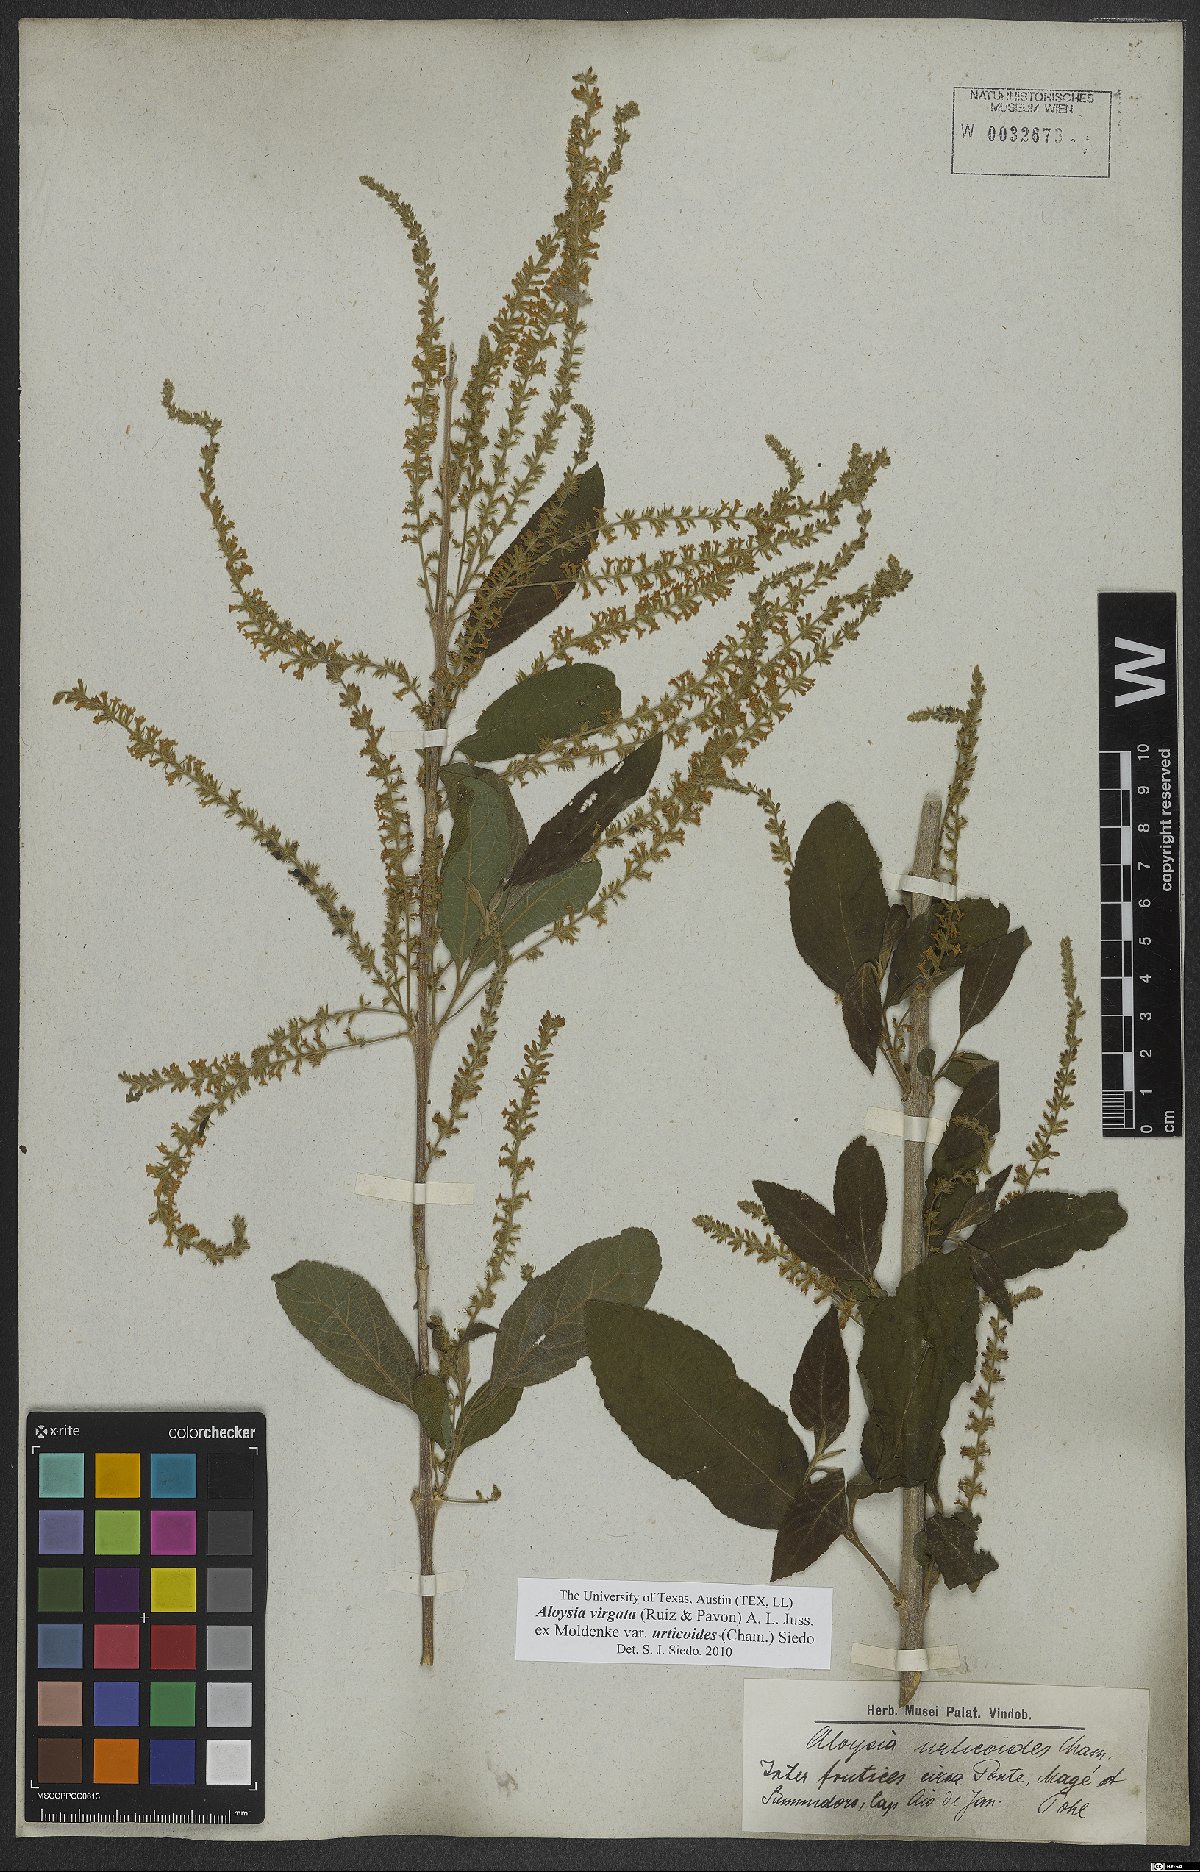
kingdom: Plantae
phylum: Tracheophyta
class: Magnoliopsida
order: Lamiales
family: Verbenaceae
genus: Aloysia
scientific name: Aloysia virgata
